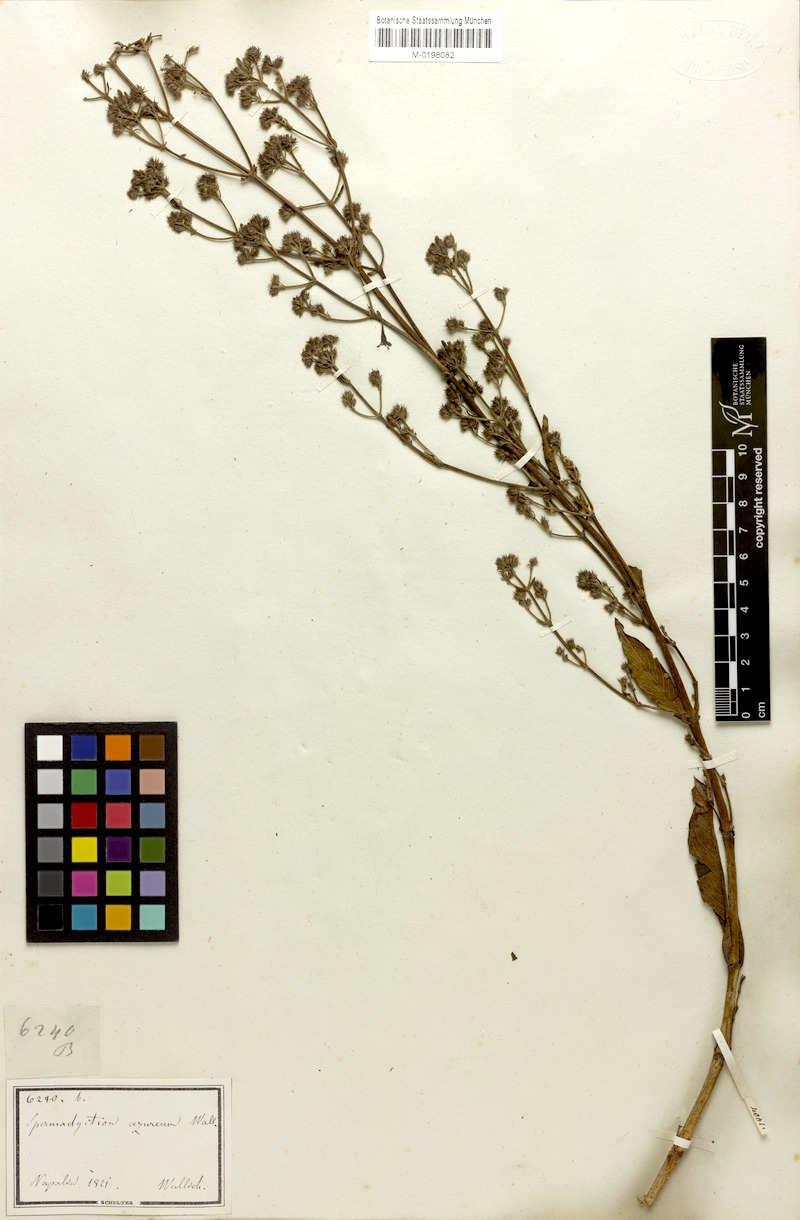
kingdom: Plantae
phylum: Tracheophyta
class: Magnoliopsida
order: Gentianales
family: Rubiaceae
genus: Spermadictyon
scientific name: Spermadictyon suaveolens
